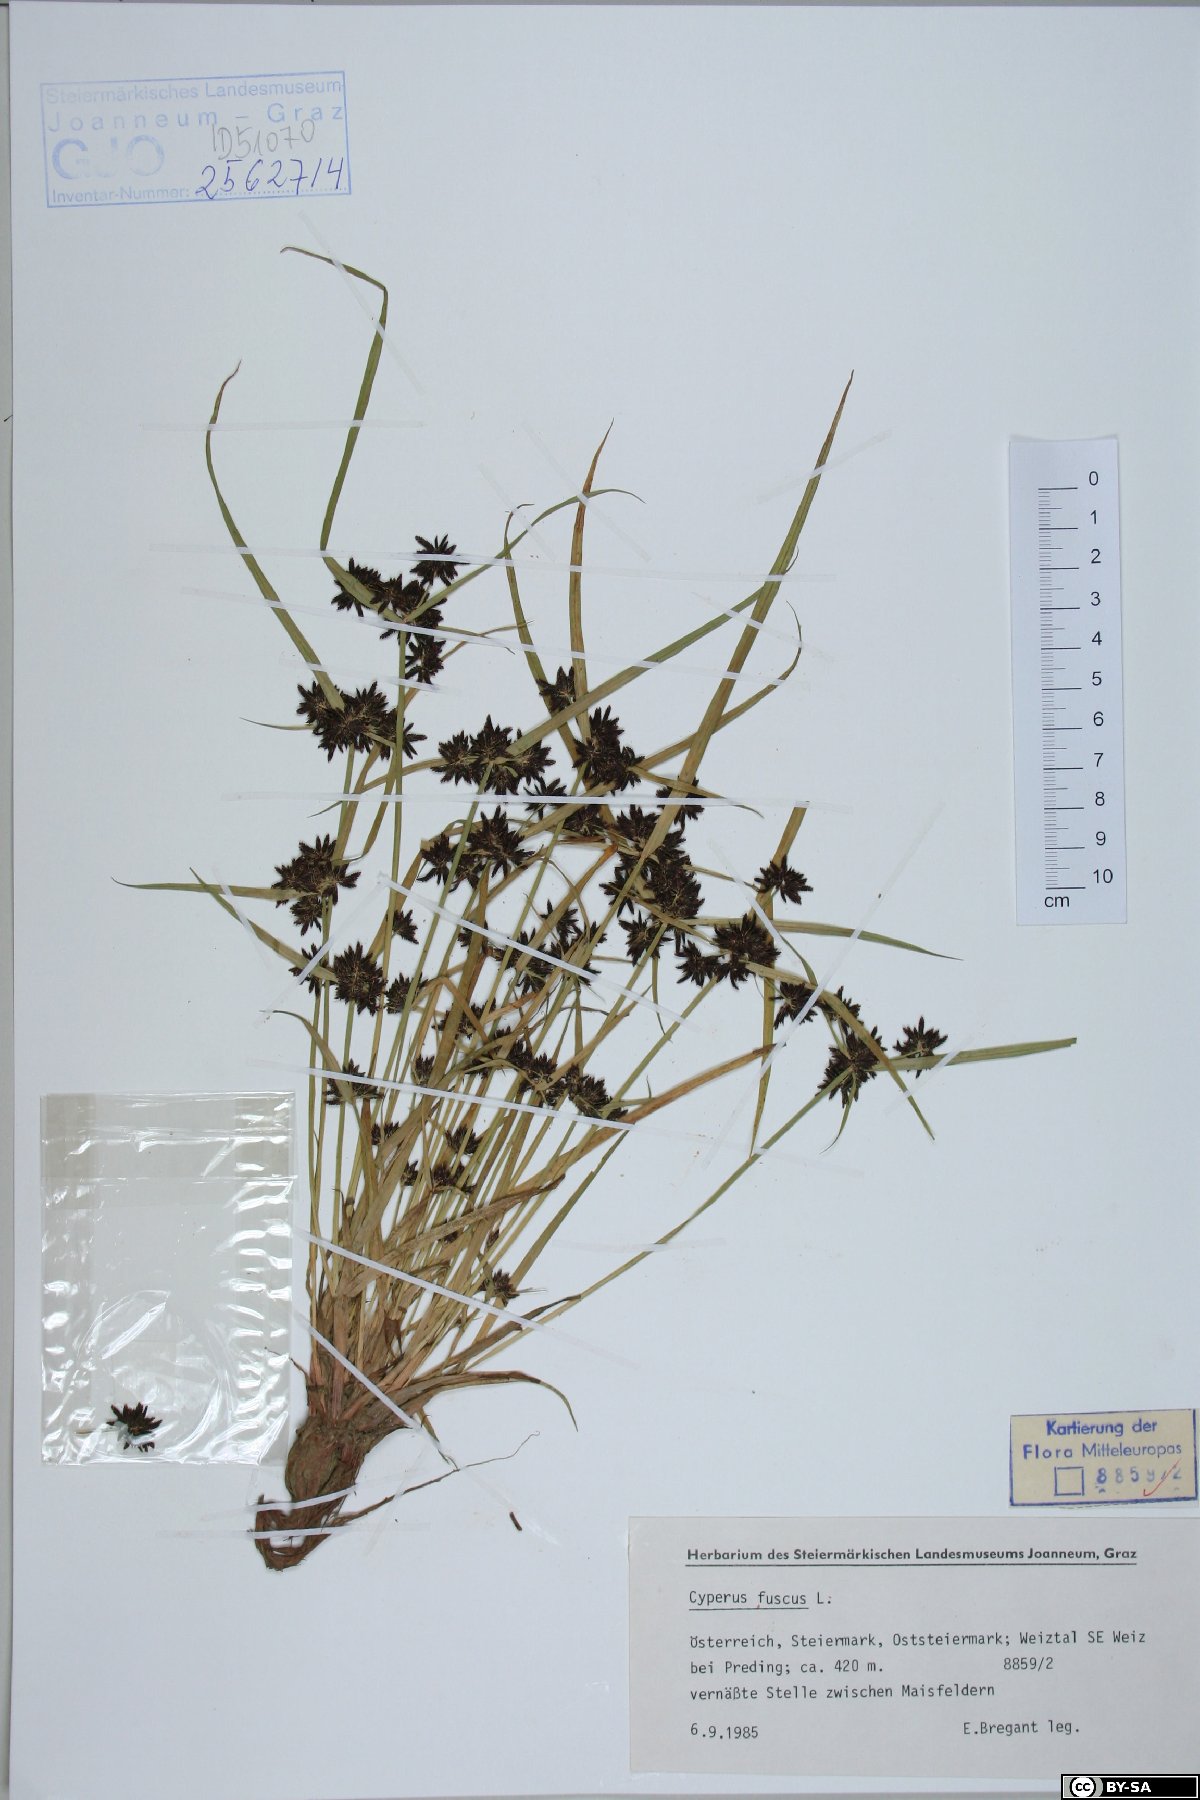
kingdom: Plantae
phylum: Tracheophyta
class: Liliopsida
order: Poales
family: Cyperaceae
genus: Cyperus
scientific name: Cyperus fuscus
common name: Brown galingale
